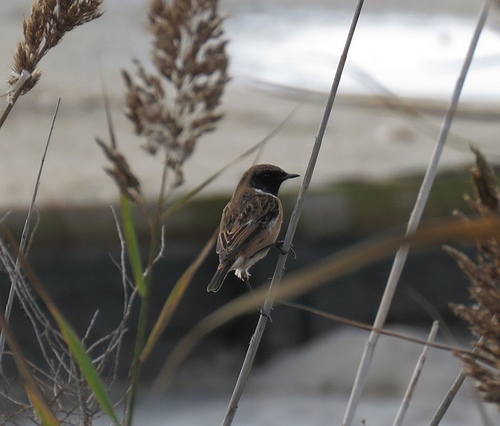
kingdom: Animalia
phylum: Chordata
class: Aves
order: Passeriformes
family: Muscicapidae
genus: Saxicola
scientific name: Saxicola rubicola
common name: European stonechat
